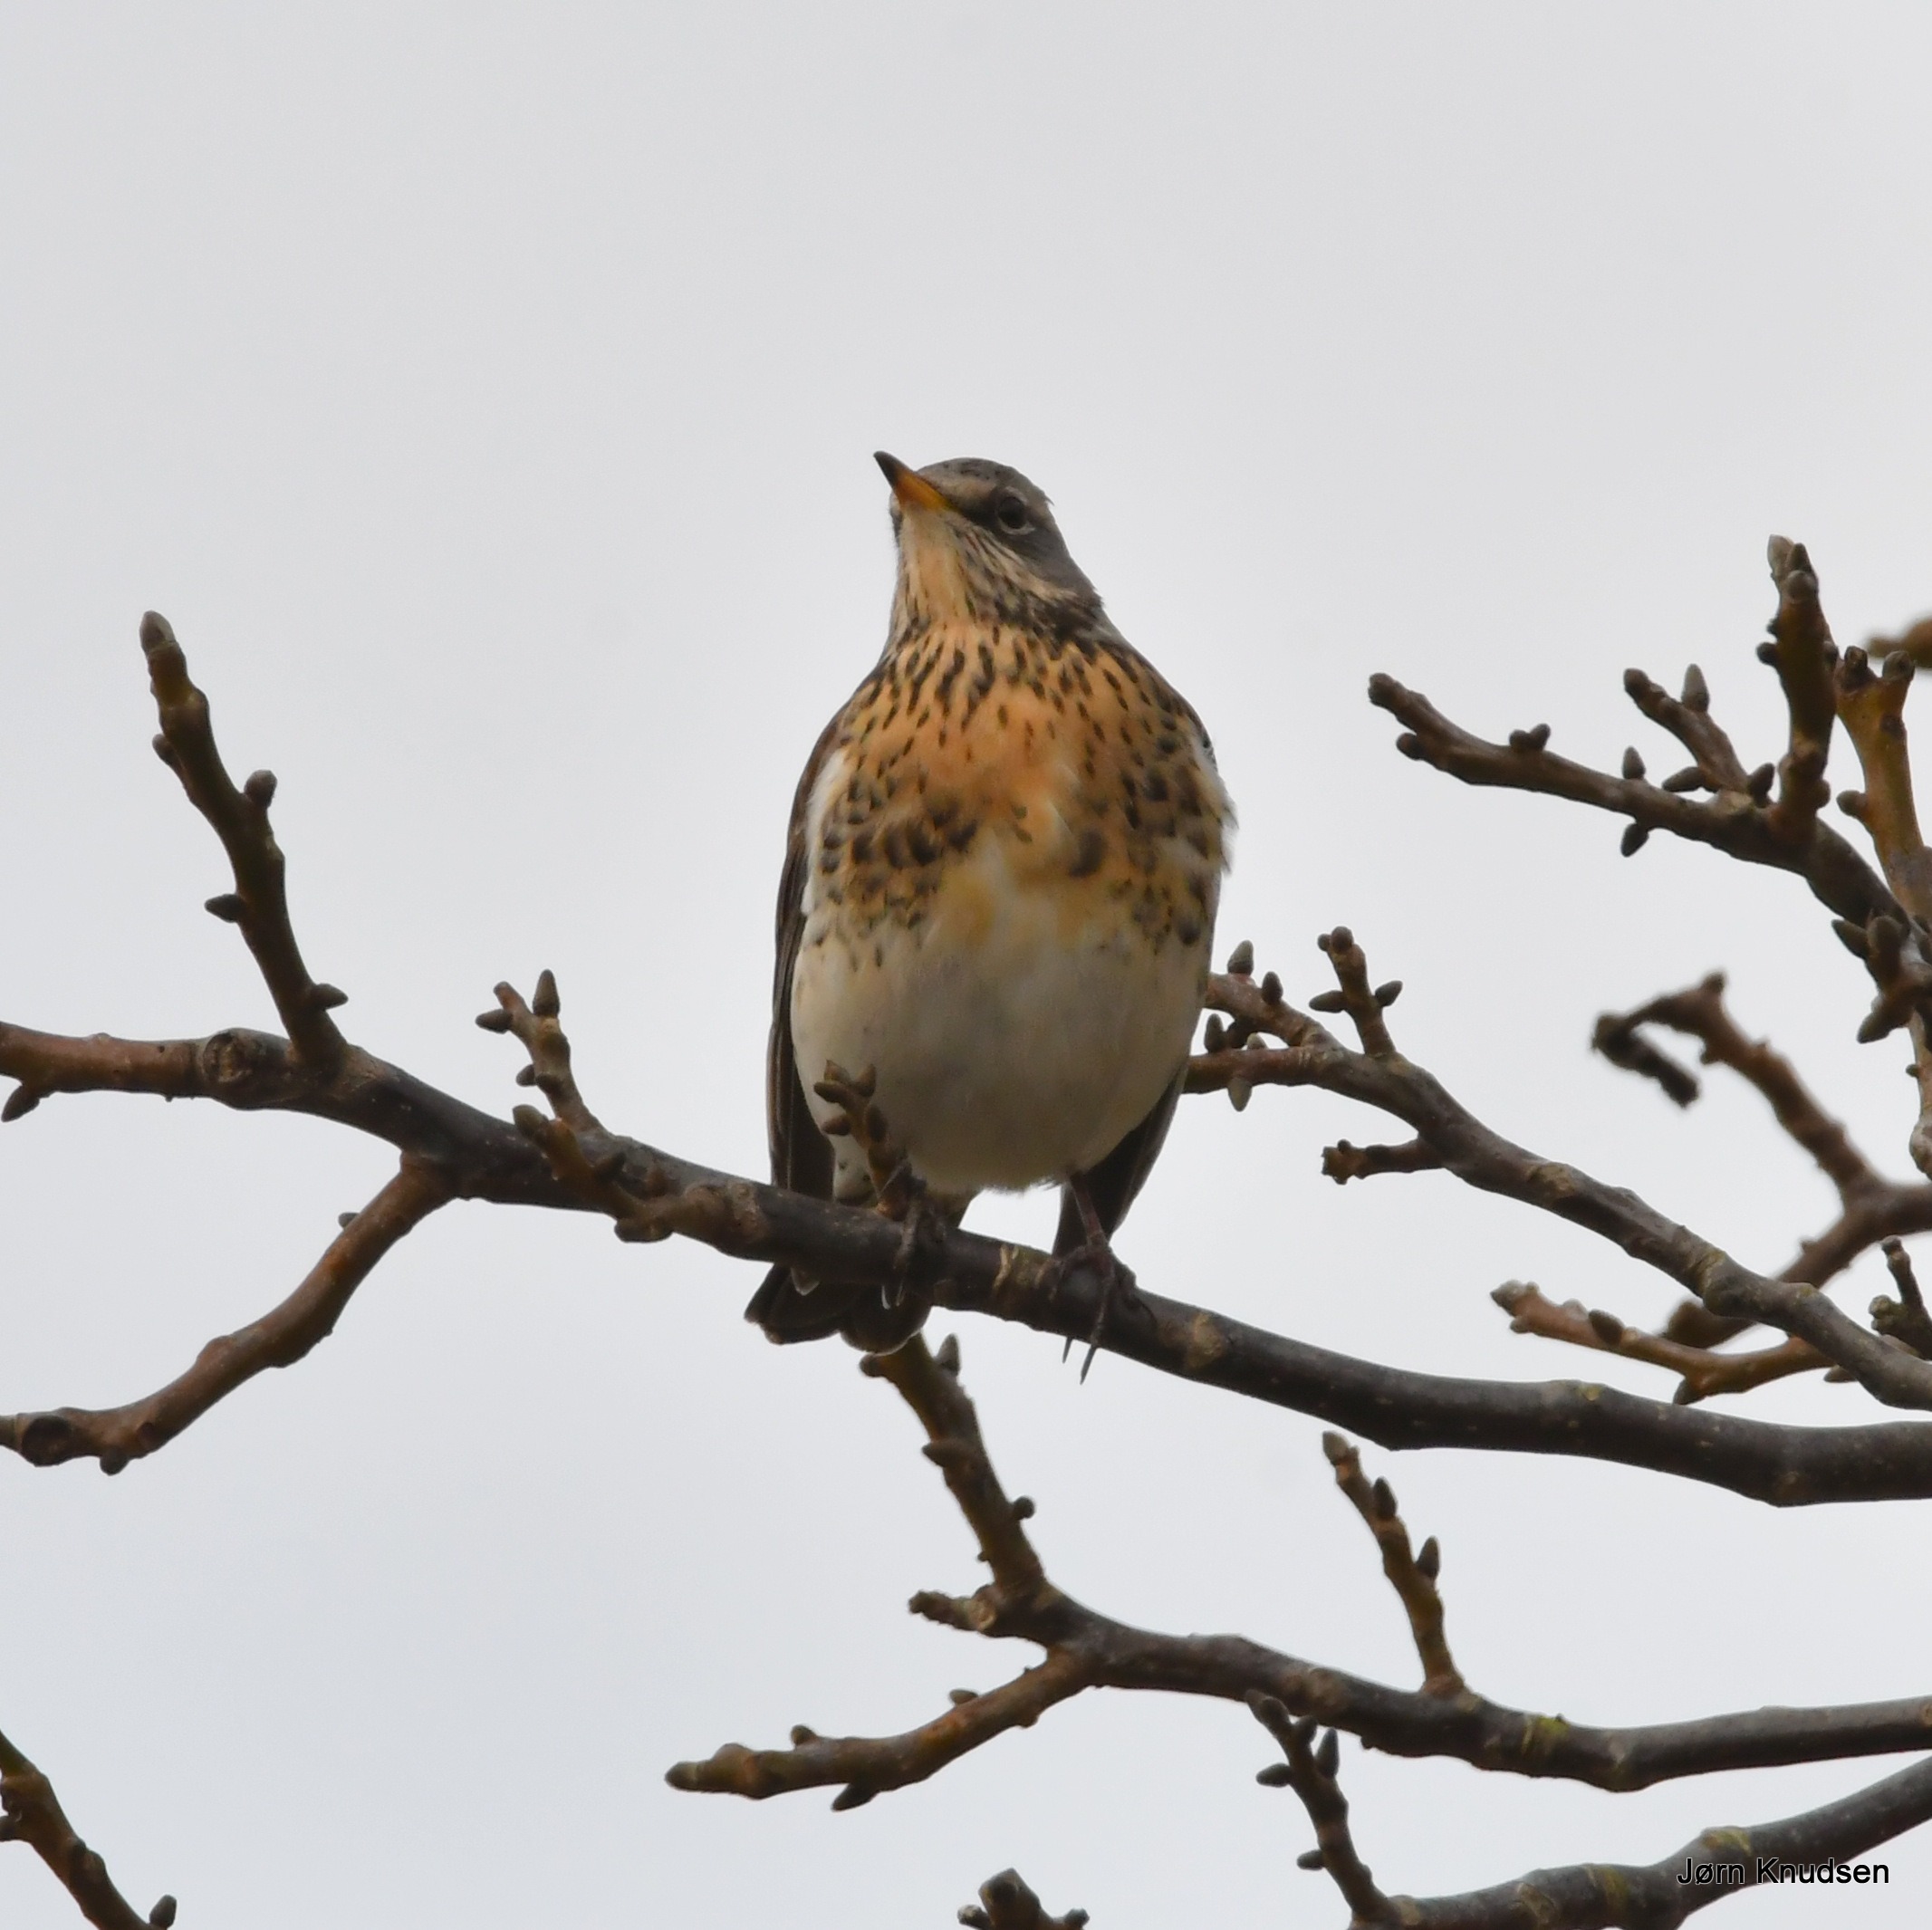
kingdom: Animalia
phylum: Chordata
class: Aves
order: Passeriformes
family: Turdidae
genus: Turdus
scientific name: Turdus pilaris
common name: Sjagger
